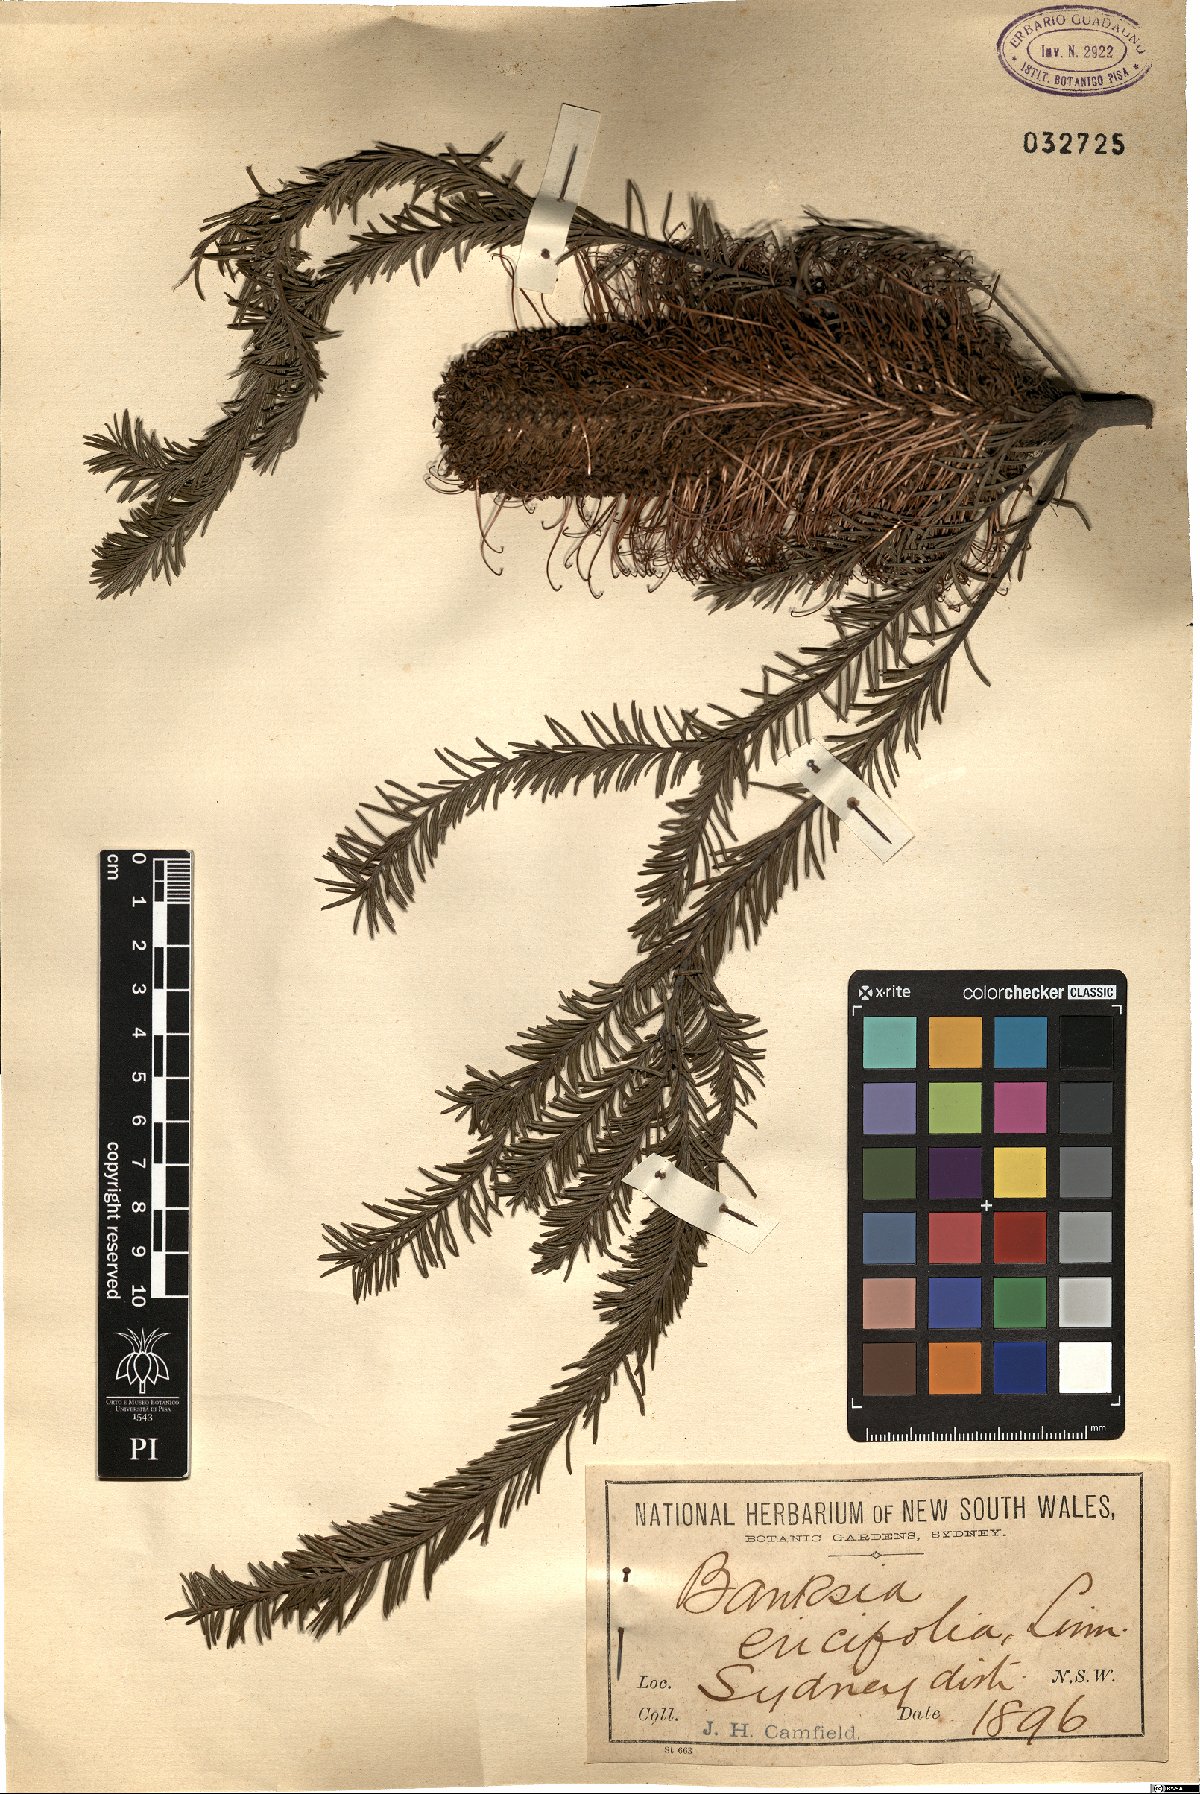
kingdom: Plantae
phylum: Tracheophyta
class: Magnoliopsida
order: Proteales
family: Proteaceae
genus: Banksia
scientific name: Banksia ericifolia
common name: Heath-leaf banksia
